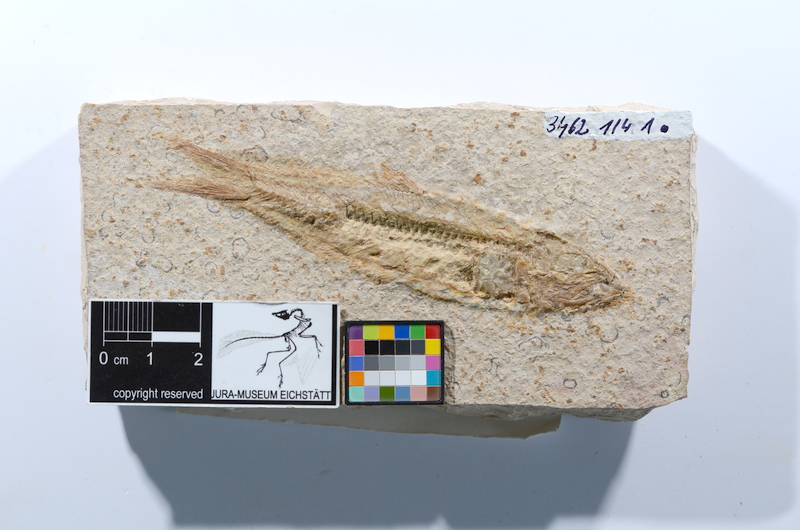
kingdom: Animalia
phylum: Chordata
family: Ascalaboidae
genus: Ascalabos
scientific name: Ascalabos voithii
